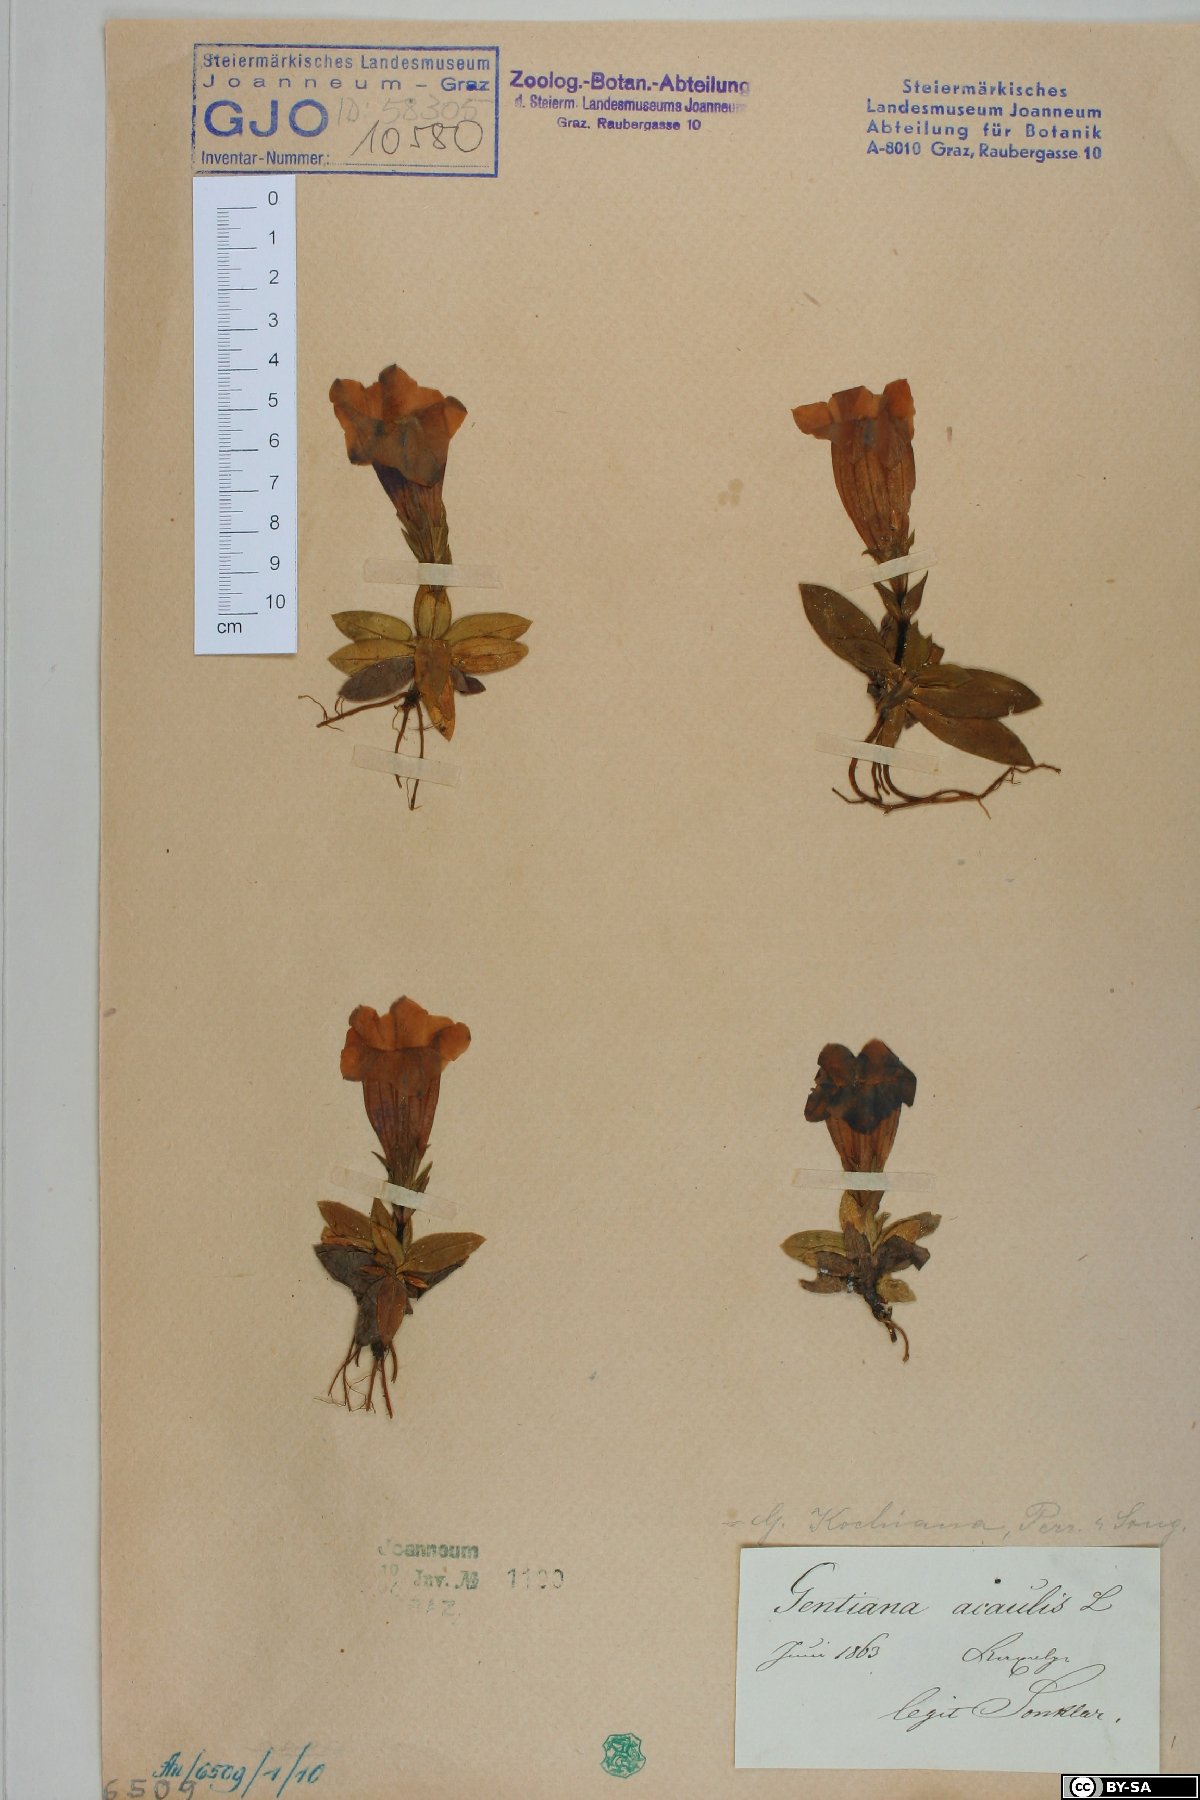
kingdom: Plantae
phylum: Tracheophyta
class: Magnoliopsida
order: Gentianales
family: Gentianaceae
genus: Gentiana
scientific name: Gentiana clusii
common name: Trumpet gentian
